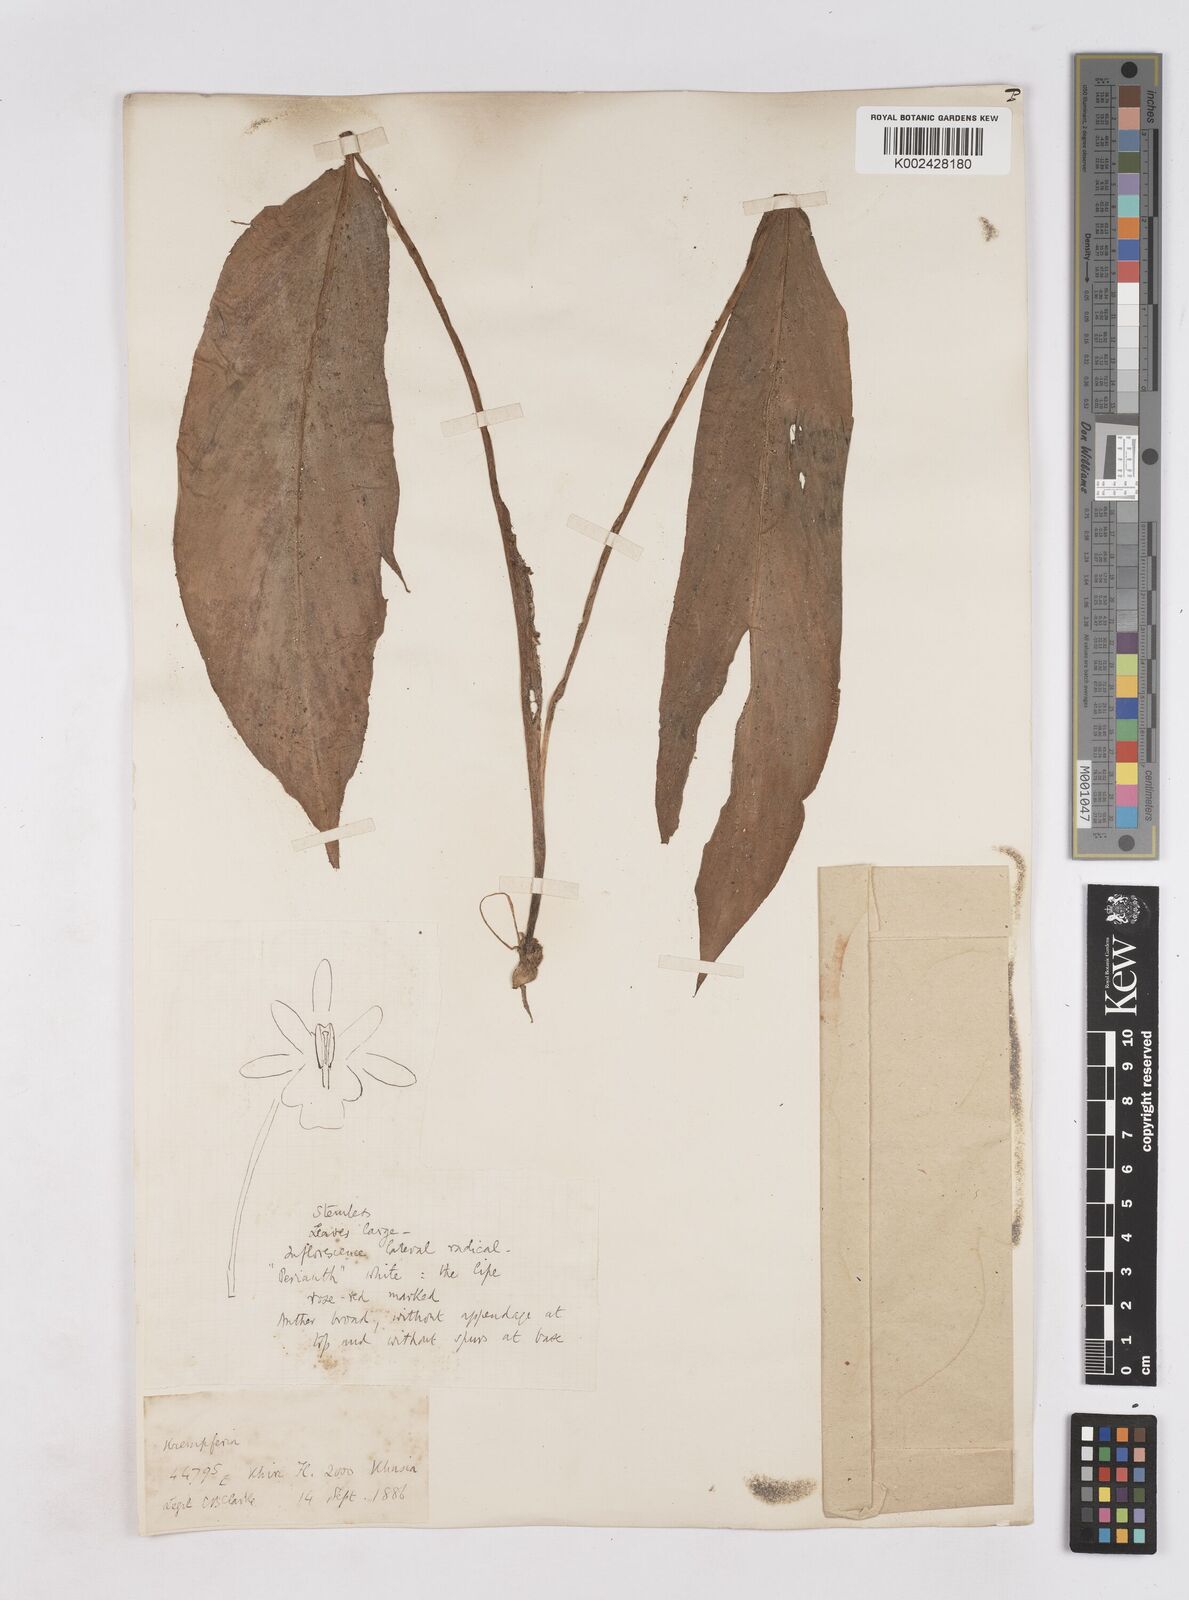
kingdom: Plantae
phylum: Tracheophyta
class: Liliopsida
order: Zingiberales
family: Zingiberaceae
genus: Boesenbergia
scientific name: Boesenbergia longiflora
